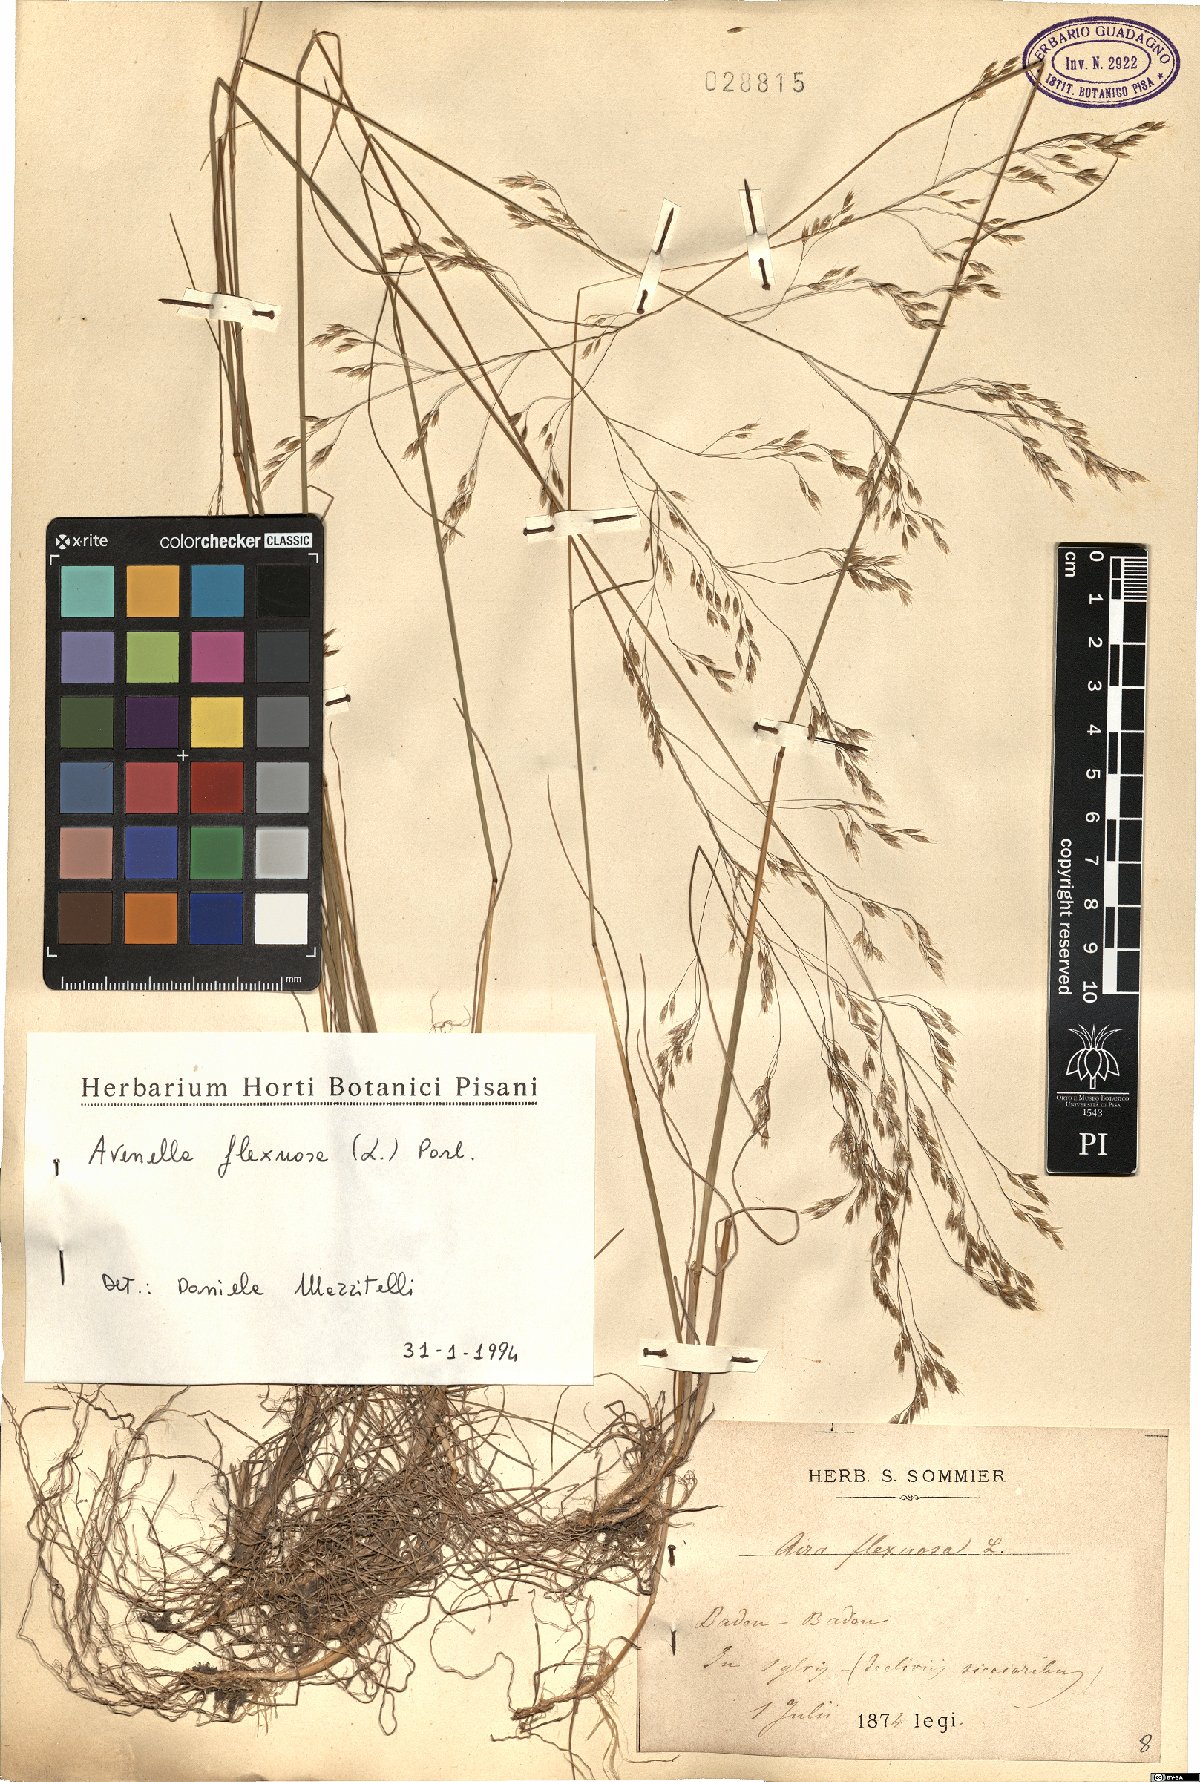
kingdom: Plantae
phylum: Tracheophyta
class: Liliopsida
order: Poales
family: Poaceae
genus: Avenella
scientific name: Avenella flexuosa
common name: Wavy hairgrass
